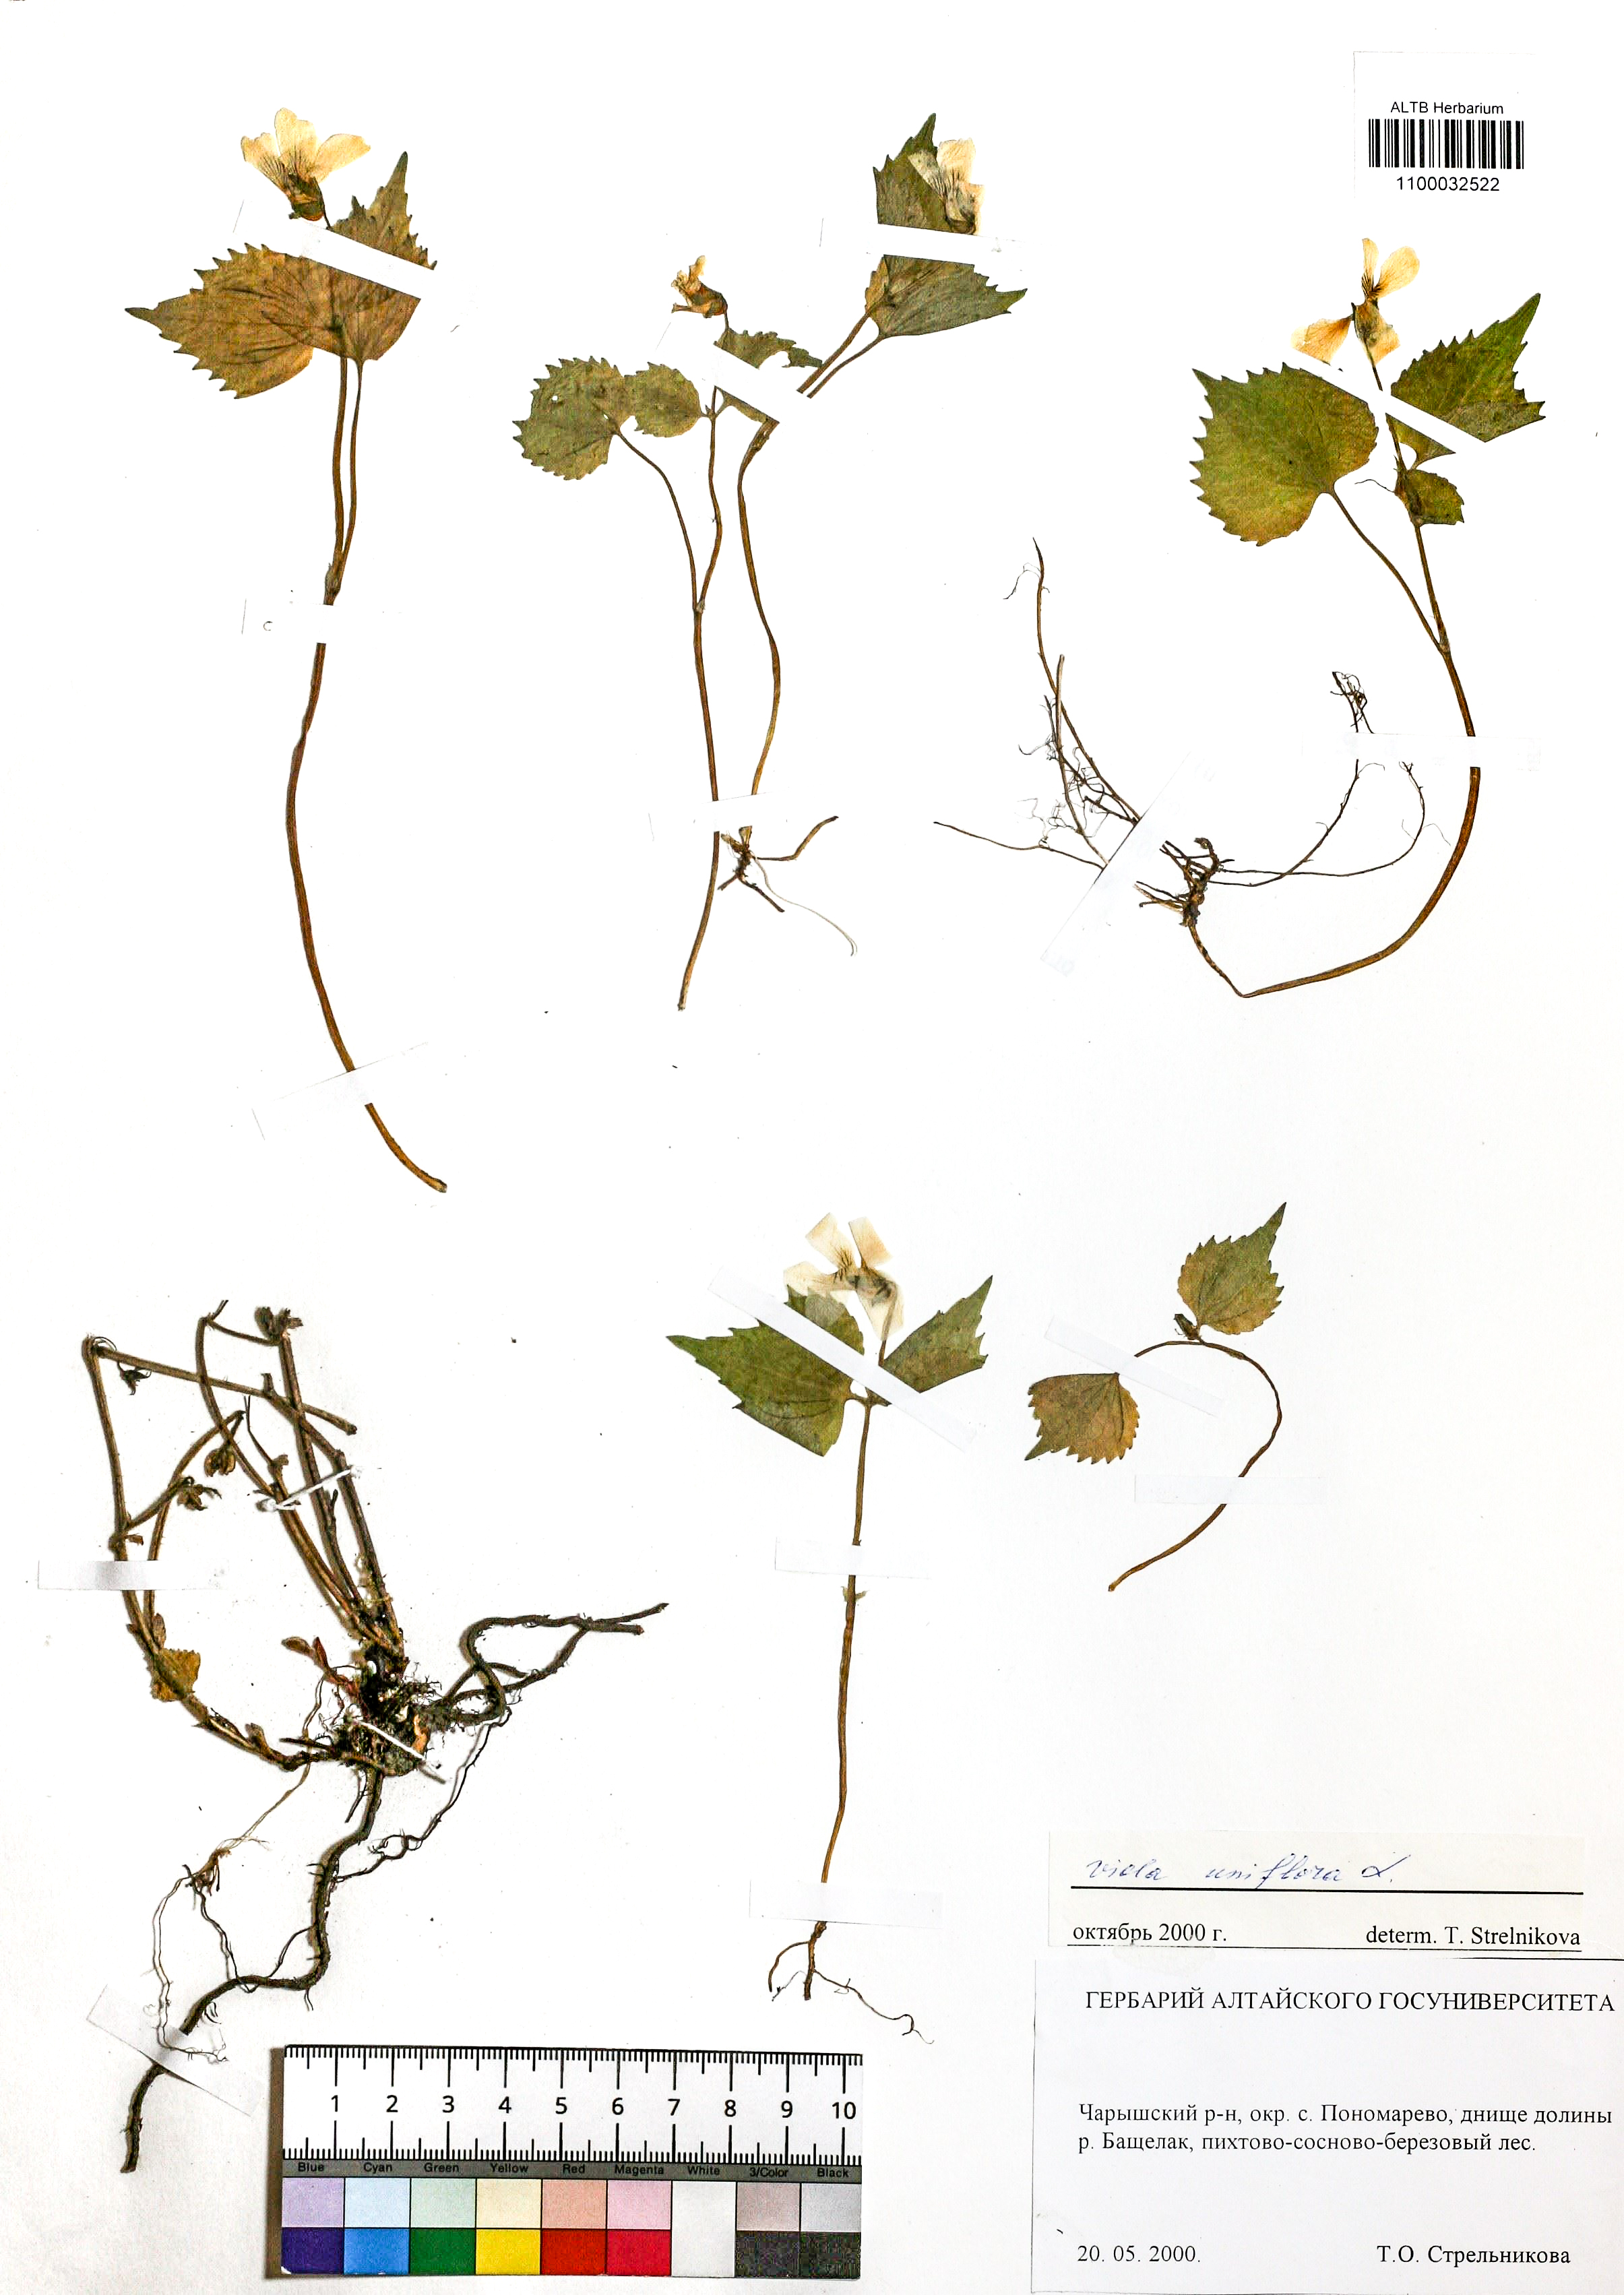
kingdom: Plantae
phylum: Tracheophyta
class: Magnoliopsida
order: Malpighiales
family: Violaceae
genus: Viola
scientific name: Viola uniflora
